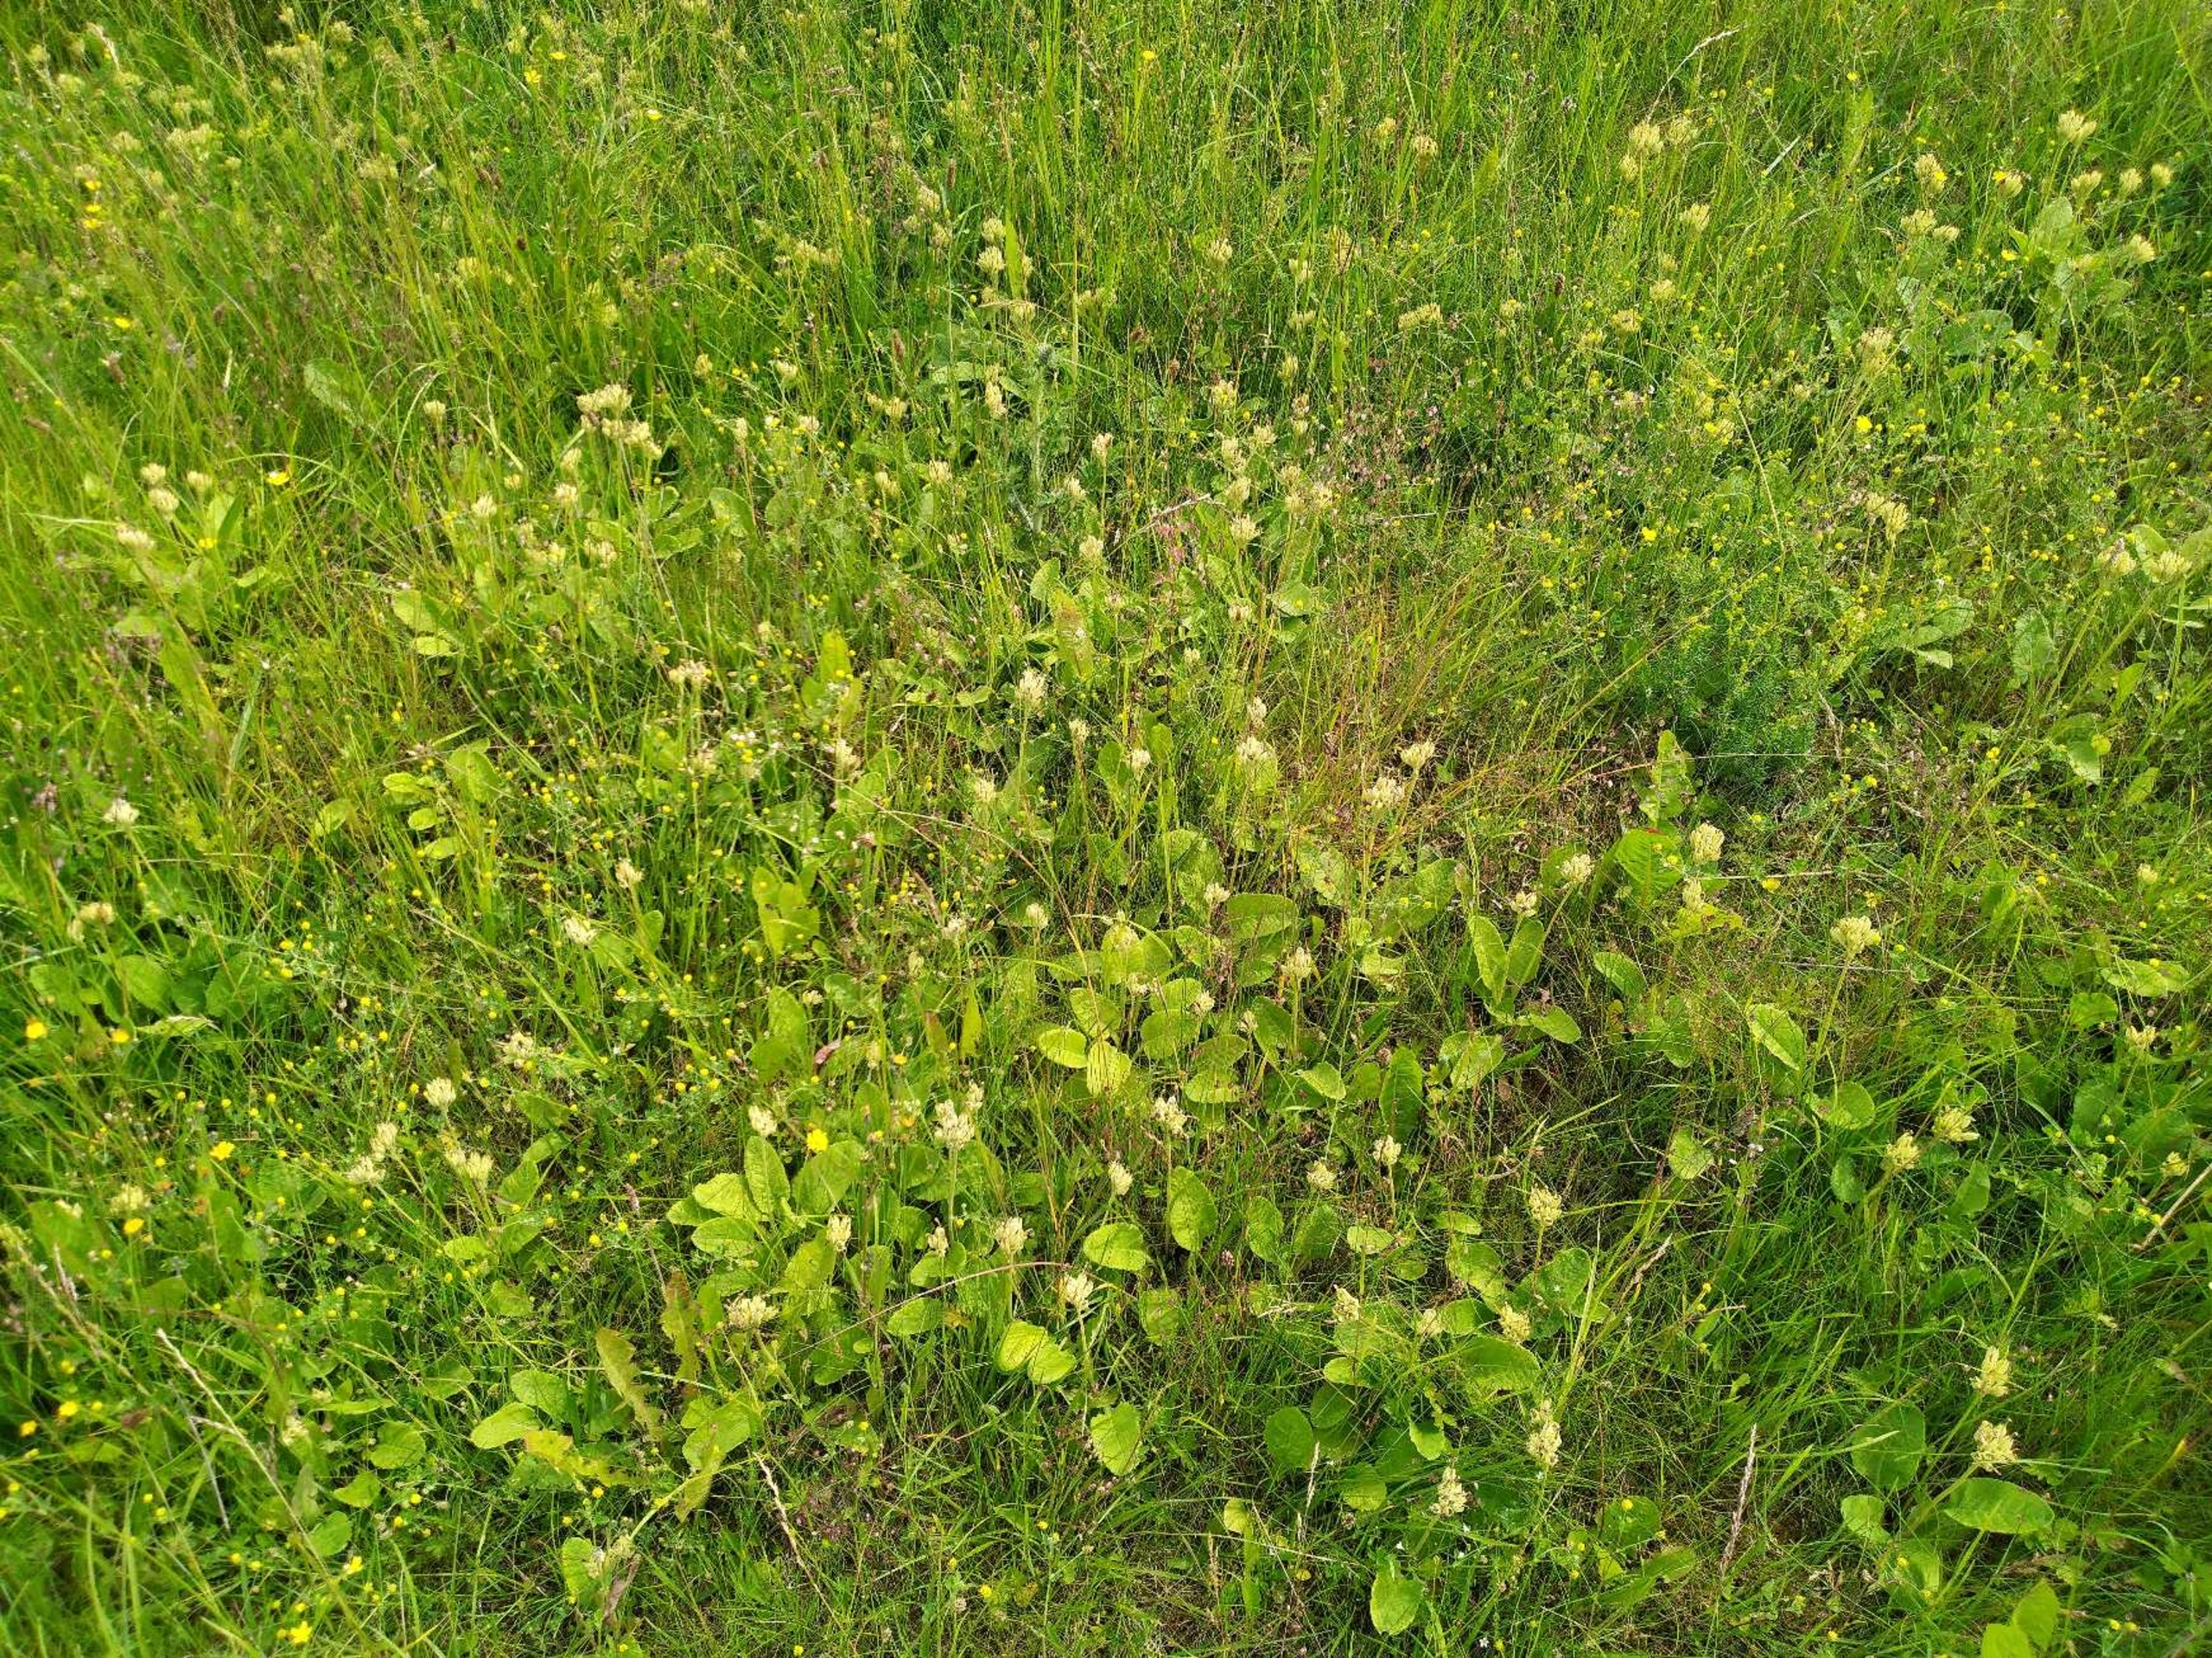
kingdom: Plantae
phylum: Tracheophyta
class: Magnoliopsida
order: Ericales
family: Primulaceae
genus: Primula
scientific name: Primula veris
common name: Hulkravet kodriver
